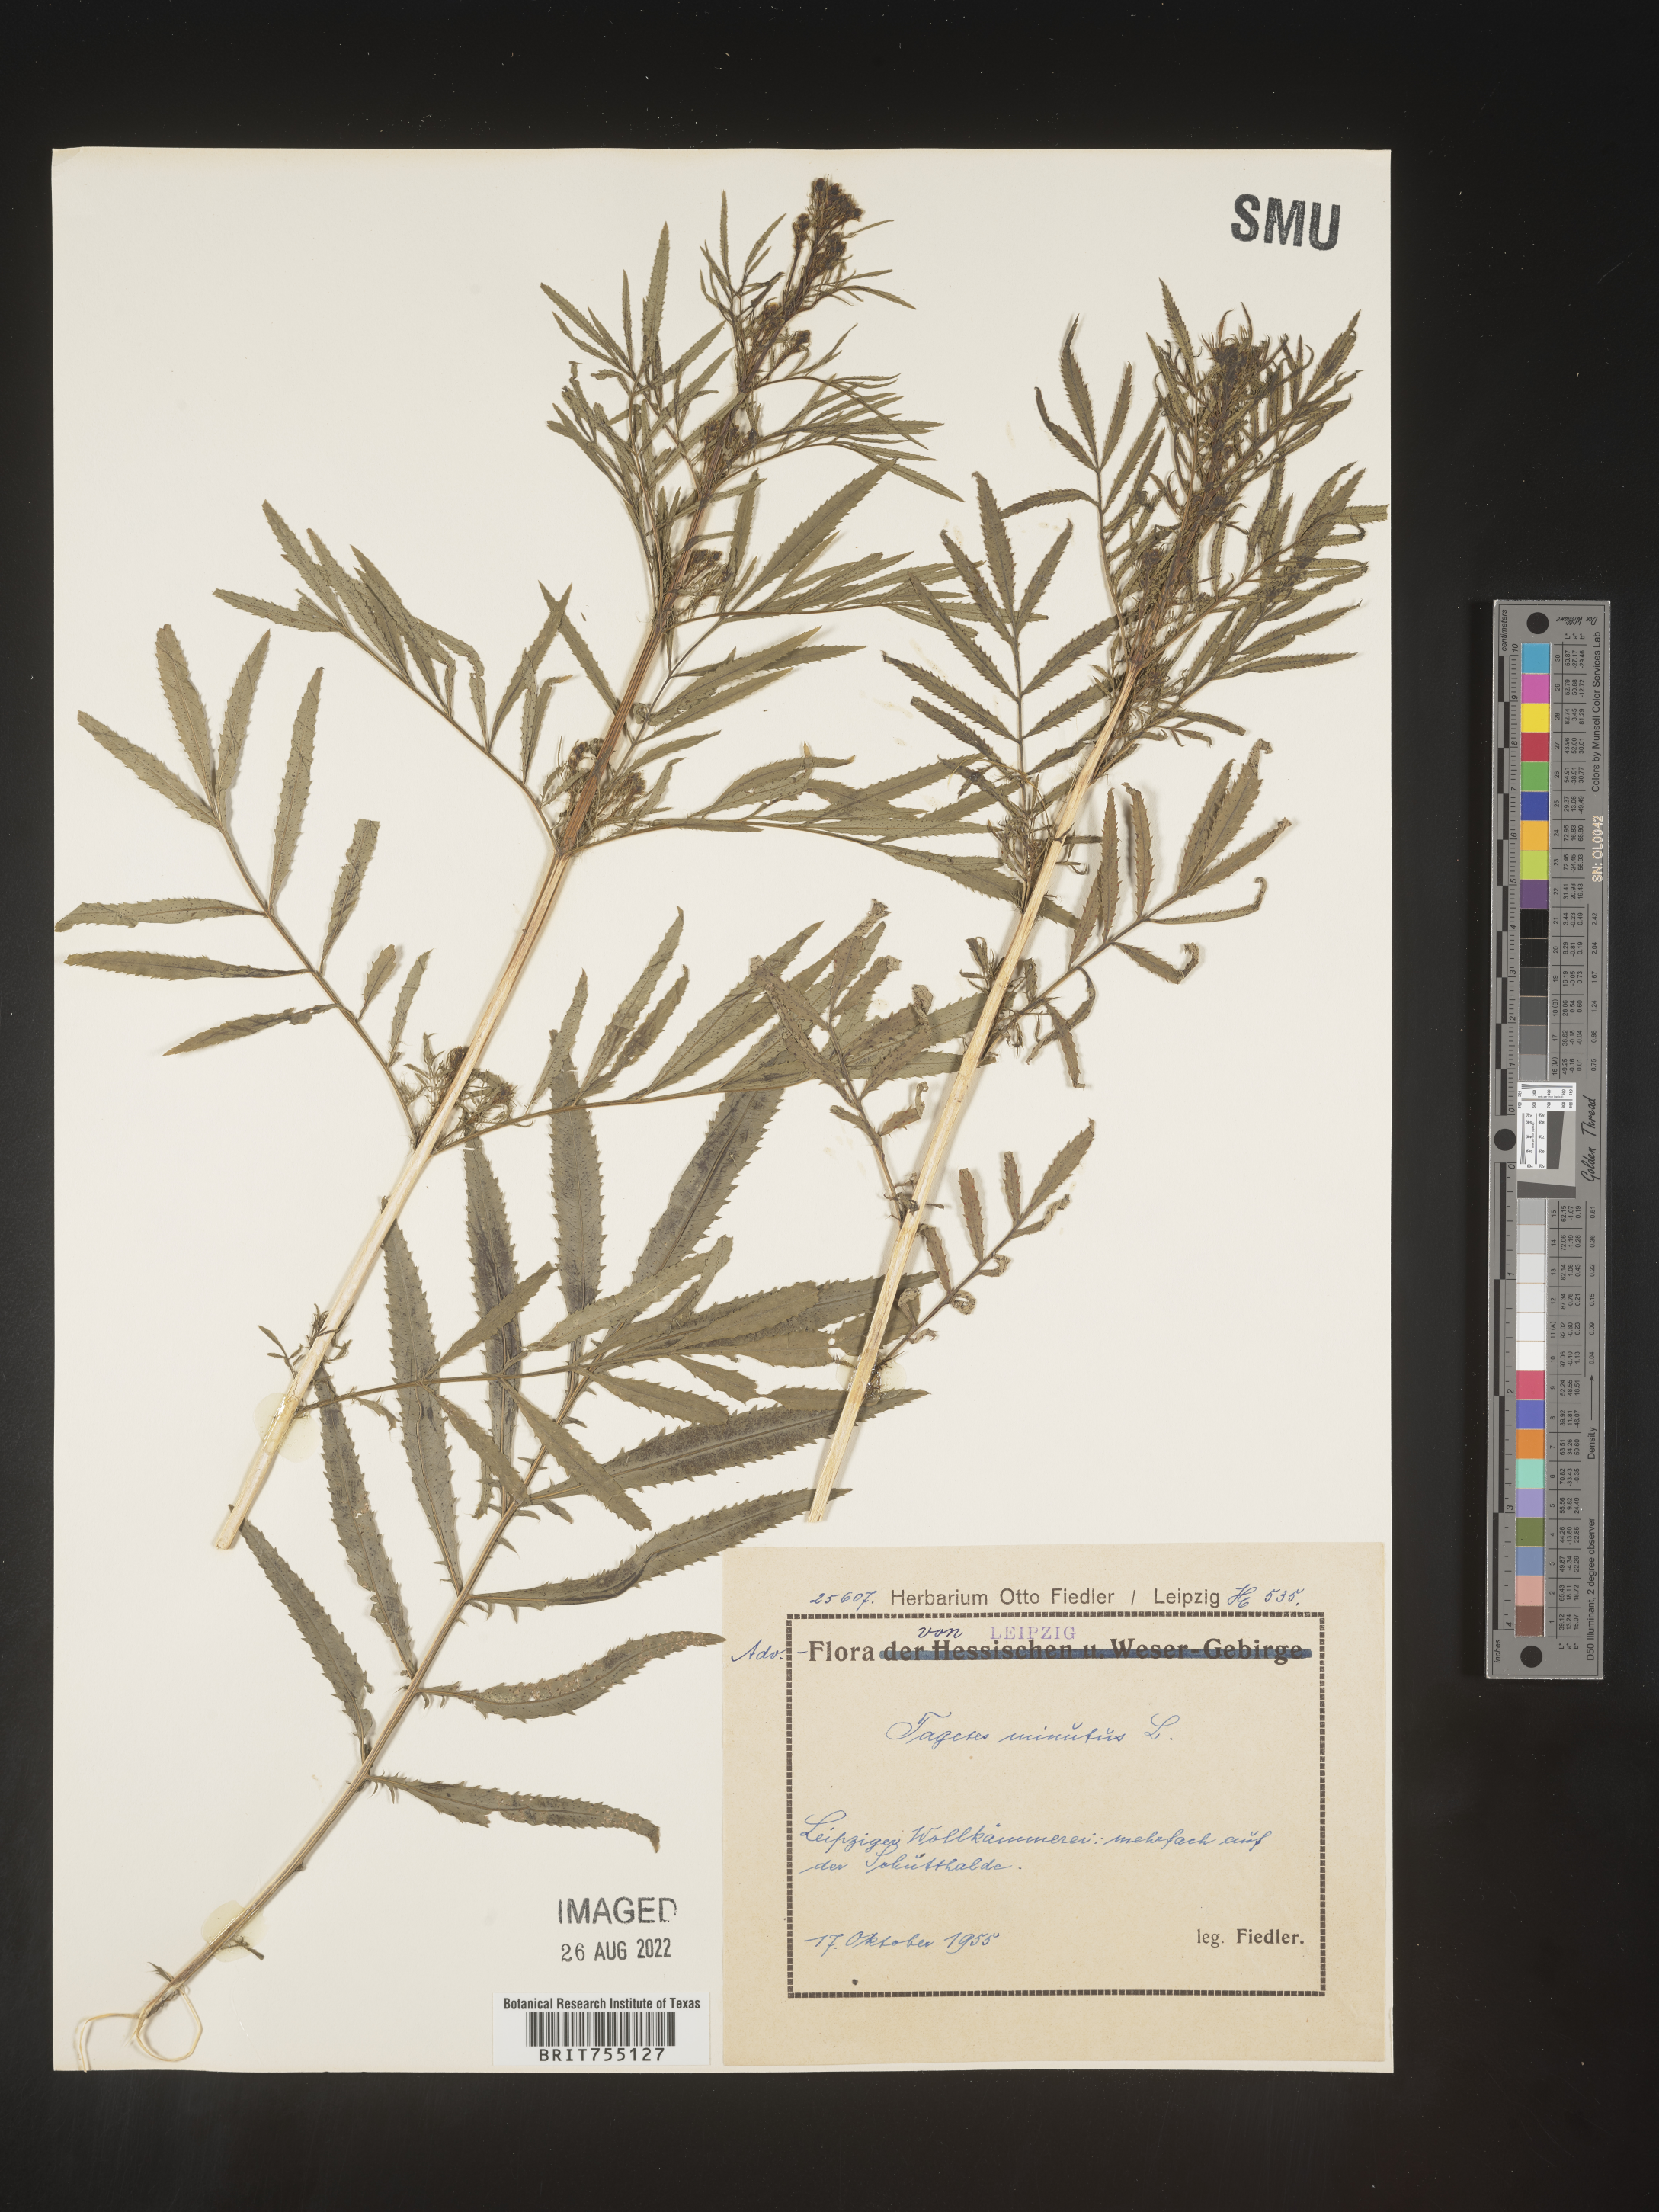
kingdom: Plantae
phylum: Tracheophyta
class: Magnoliopsida
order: Asterales
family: Asteraceae
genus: Tagetes
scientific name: Tagetes
